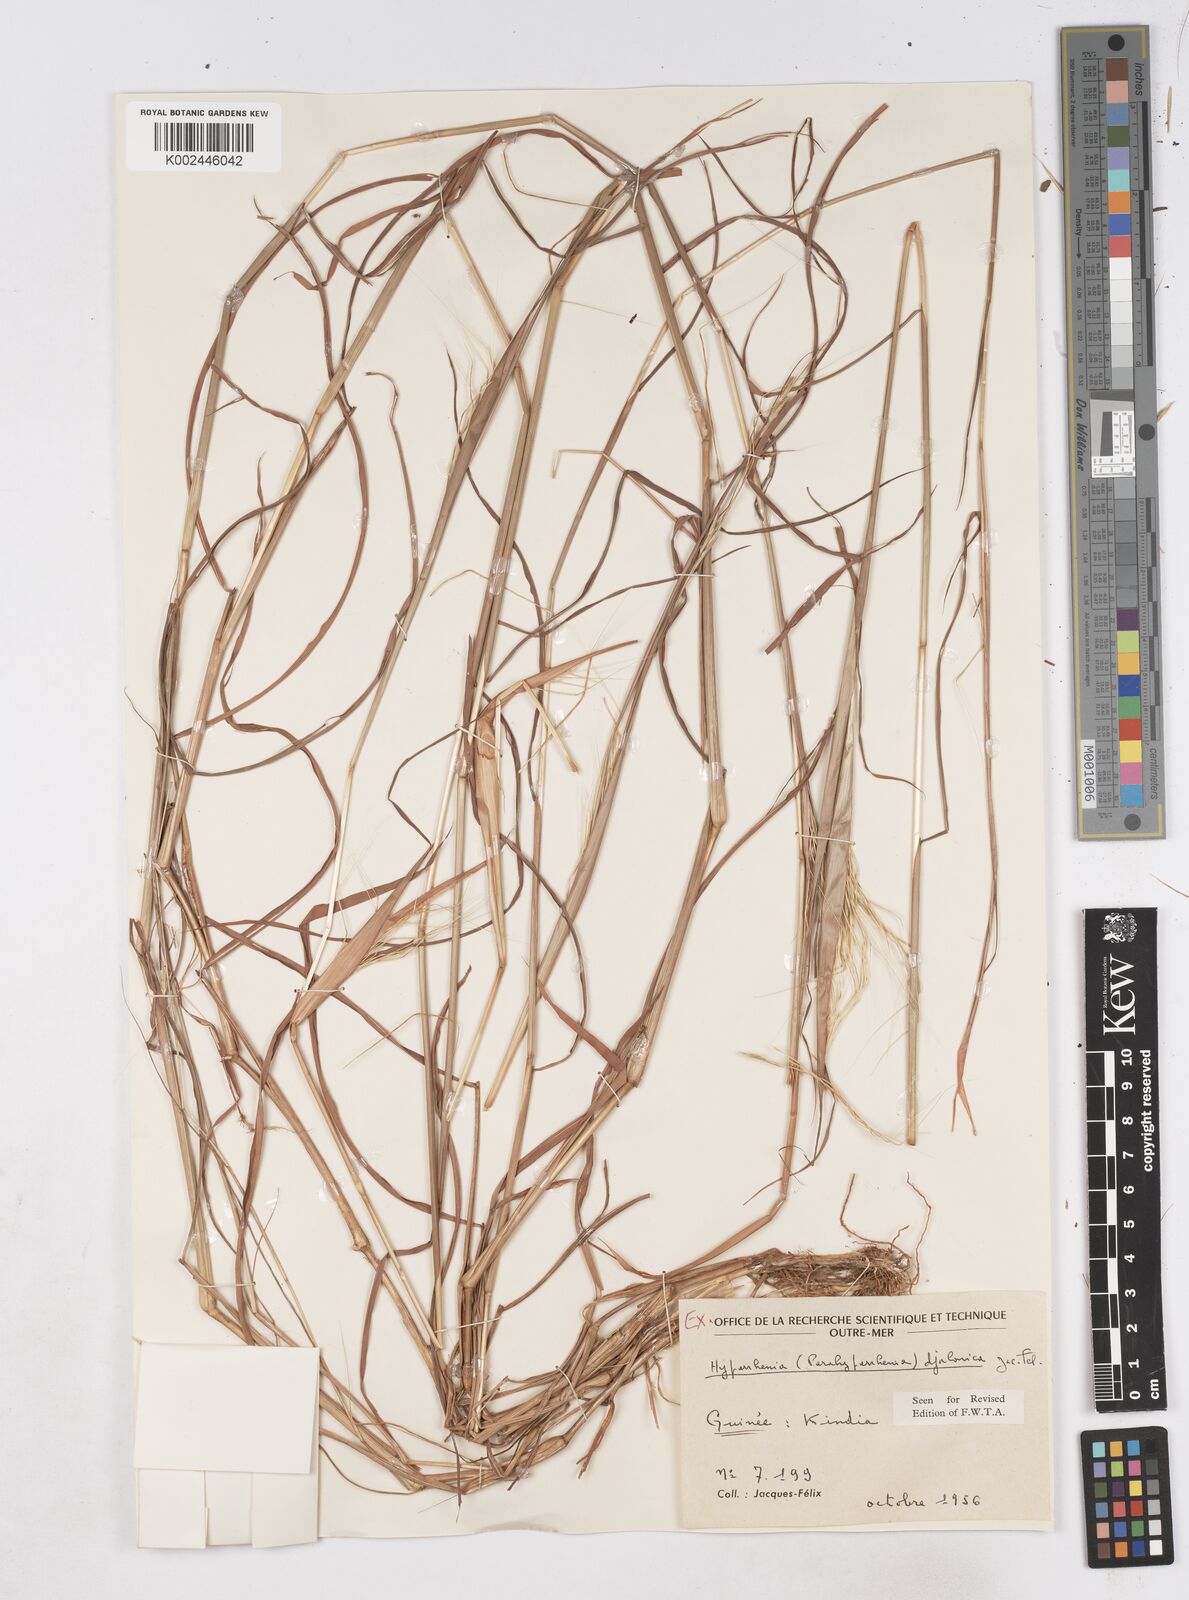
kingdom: Plantae
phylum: Tracheophyta
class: Liliopsida
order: Poales
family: Poaceae
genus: Parahyparrhenia
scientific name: Parahyparrhenia annua
